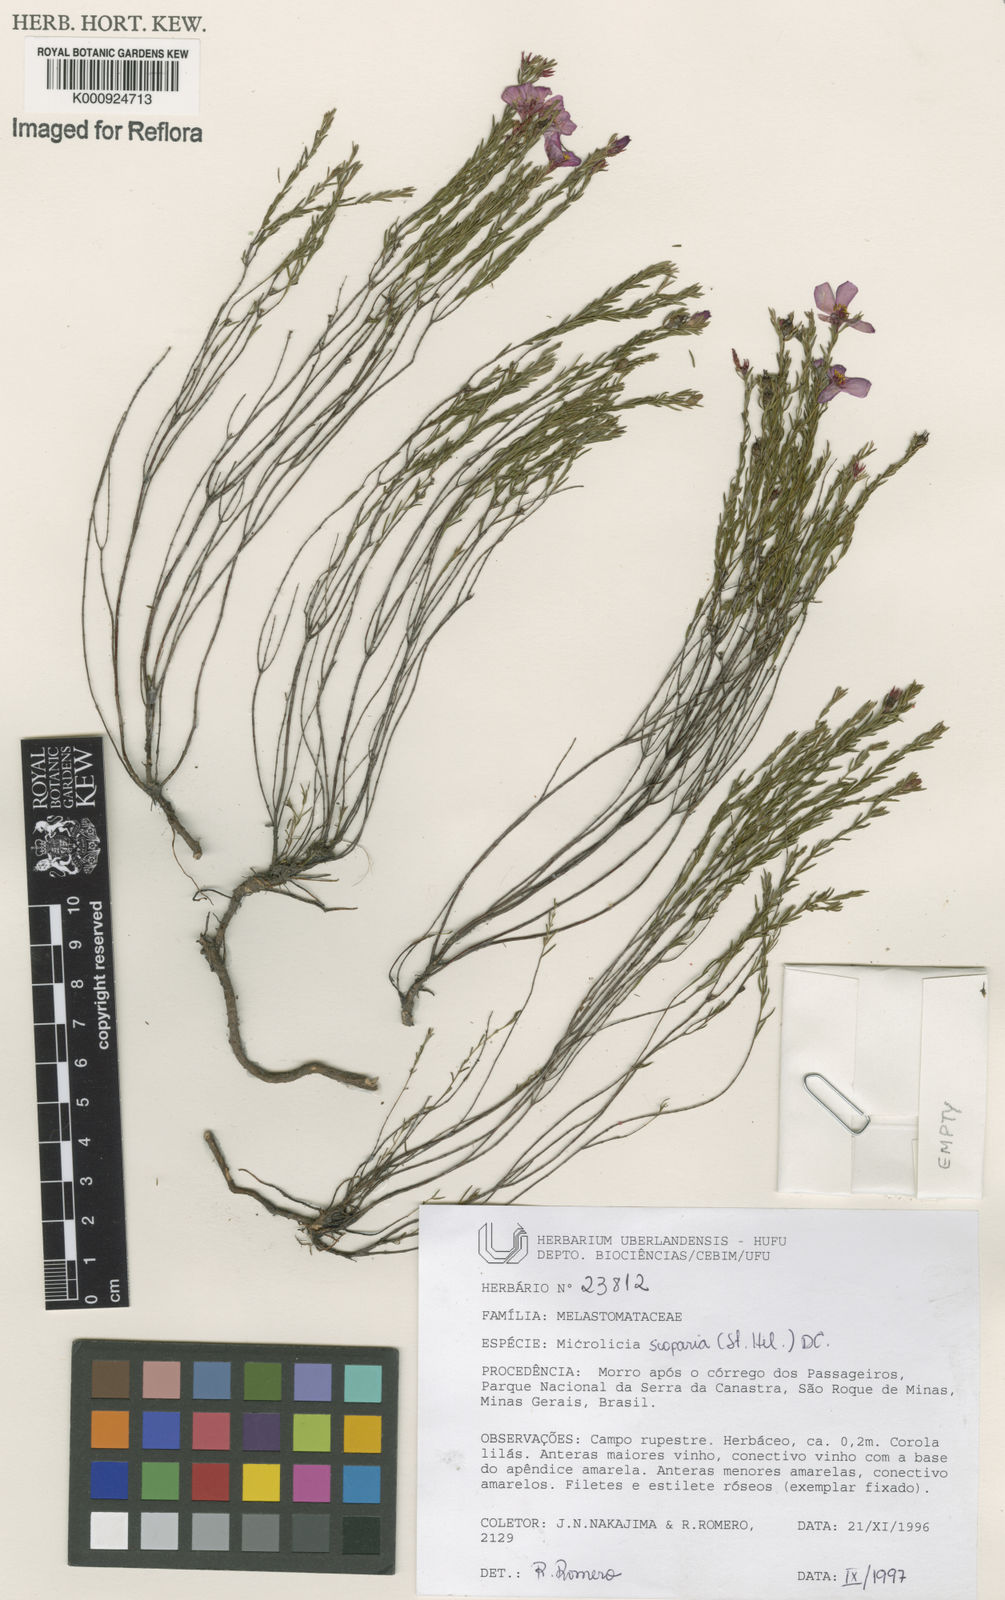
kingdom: Plantae
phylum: Tracheophyta
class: Magnoliopsida
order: Myrtales
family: Melastomataceae
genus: Microlicia
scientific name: Microlicia scoparia
